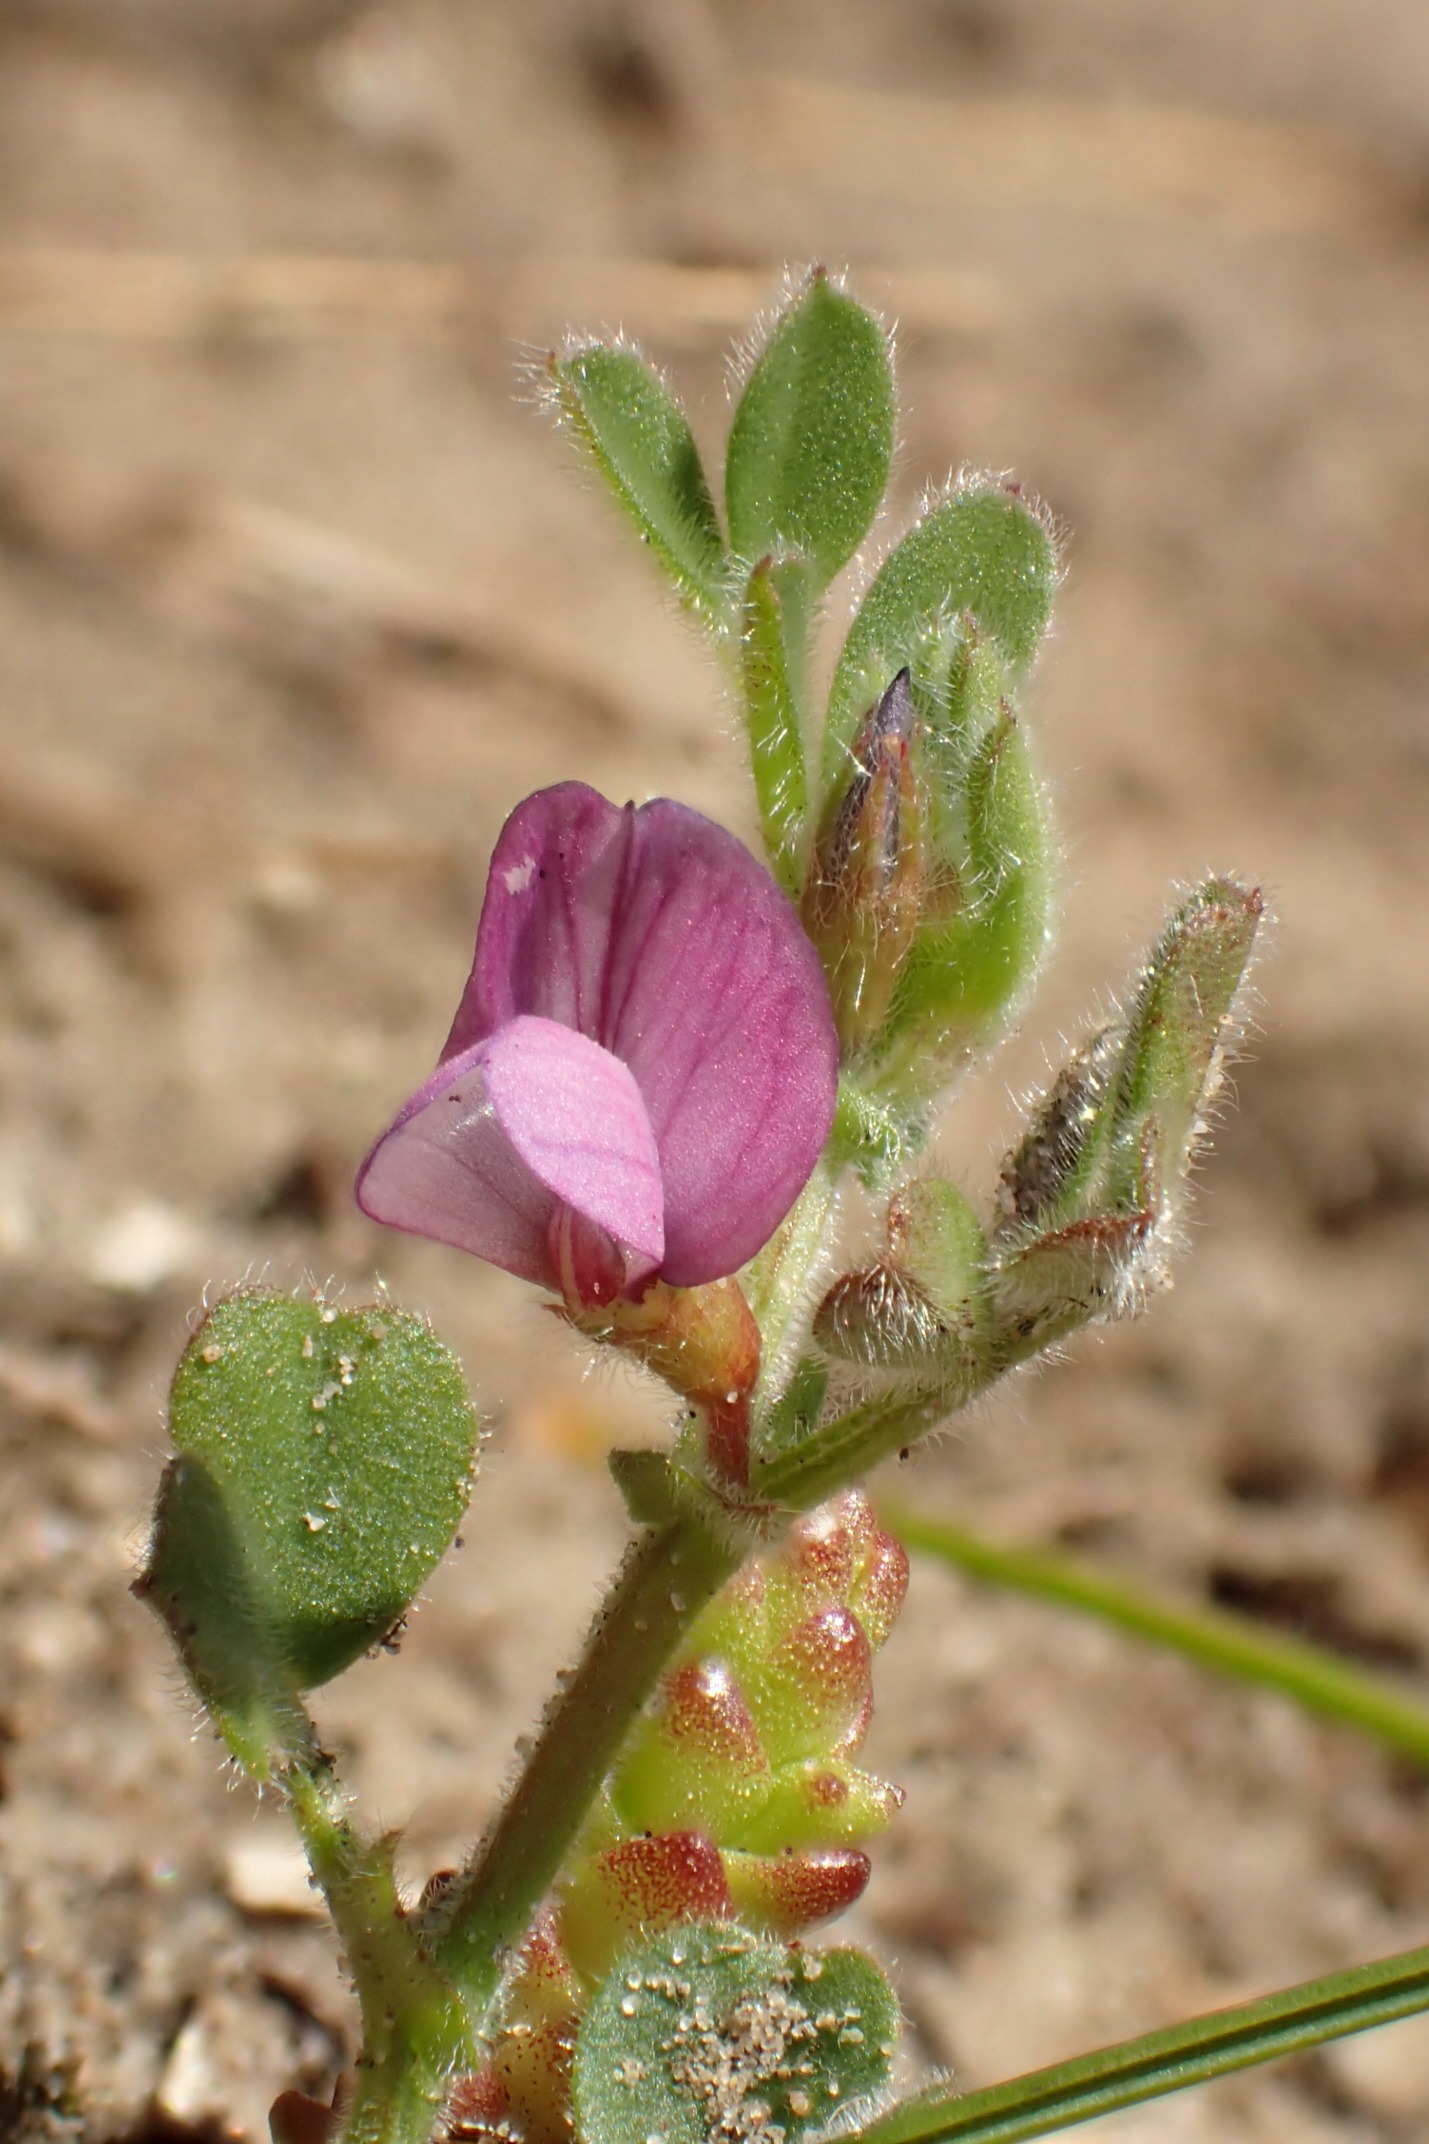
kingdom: Plantae
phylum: Tracheophyta
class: Magnoliopsida
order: Fabales
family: Fabaceae
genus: Vicia
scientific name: Vicia lathyroides
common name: Vår-vikke
